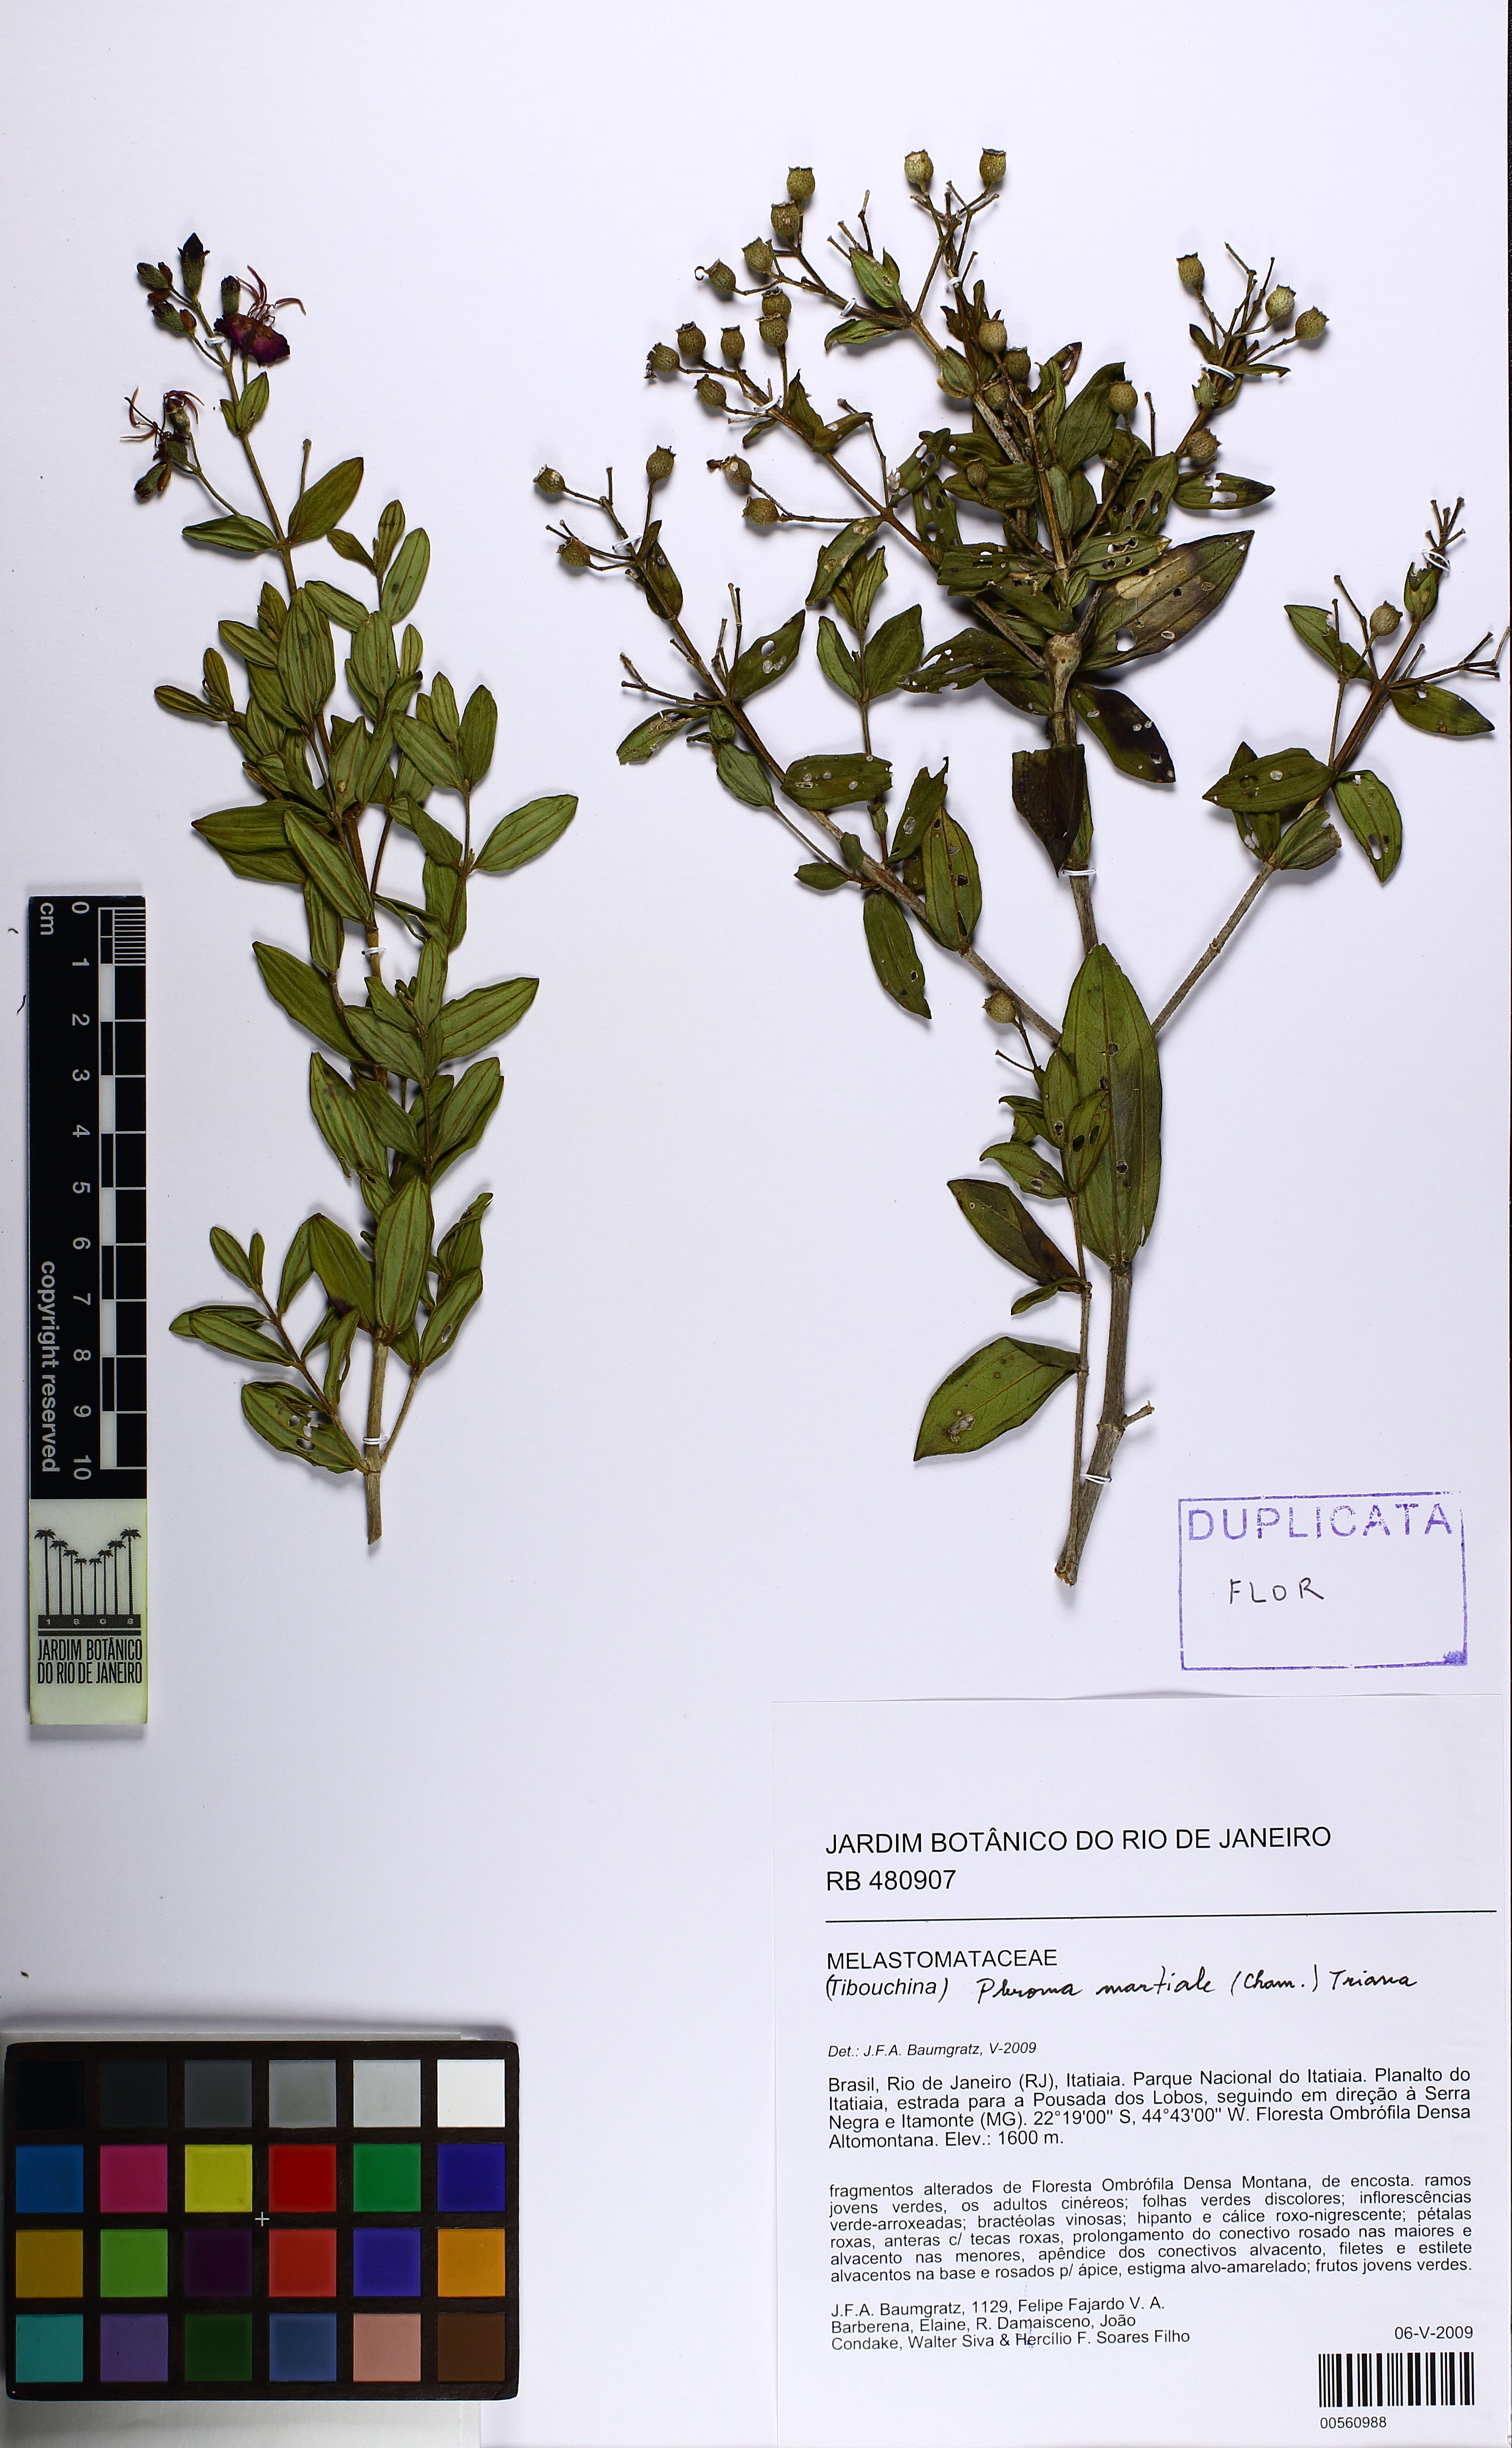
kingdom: Plantae
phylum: Tracheophyta
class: Magnoliopsida
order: Myrtales
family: Melastomataceae
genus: Pleroma
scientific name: Pleroma martiale
